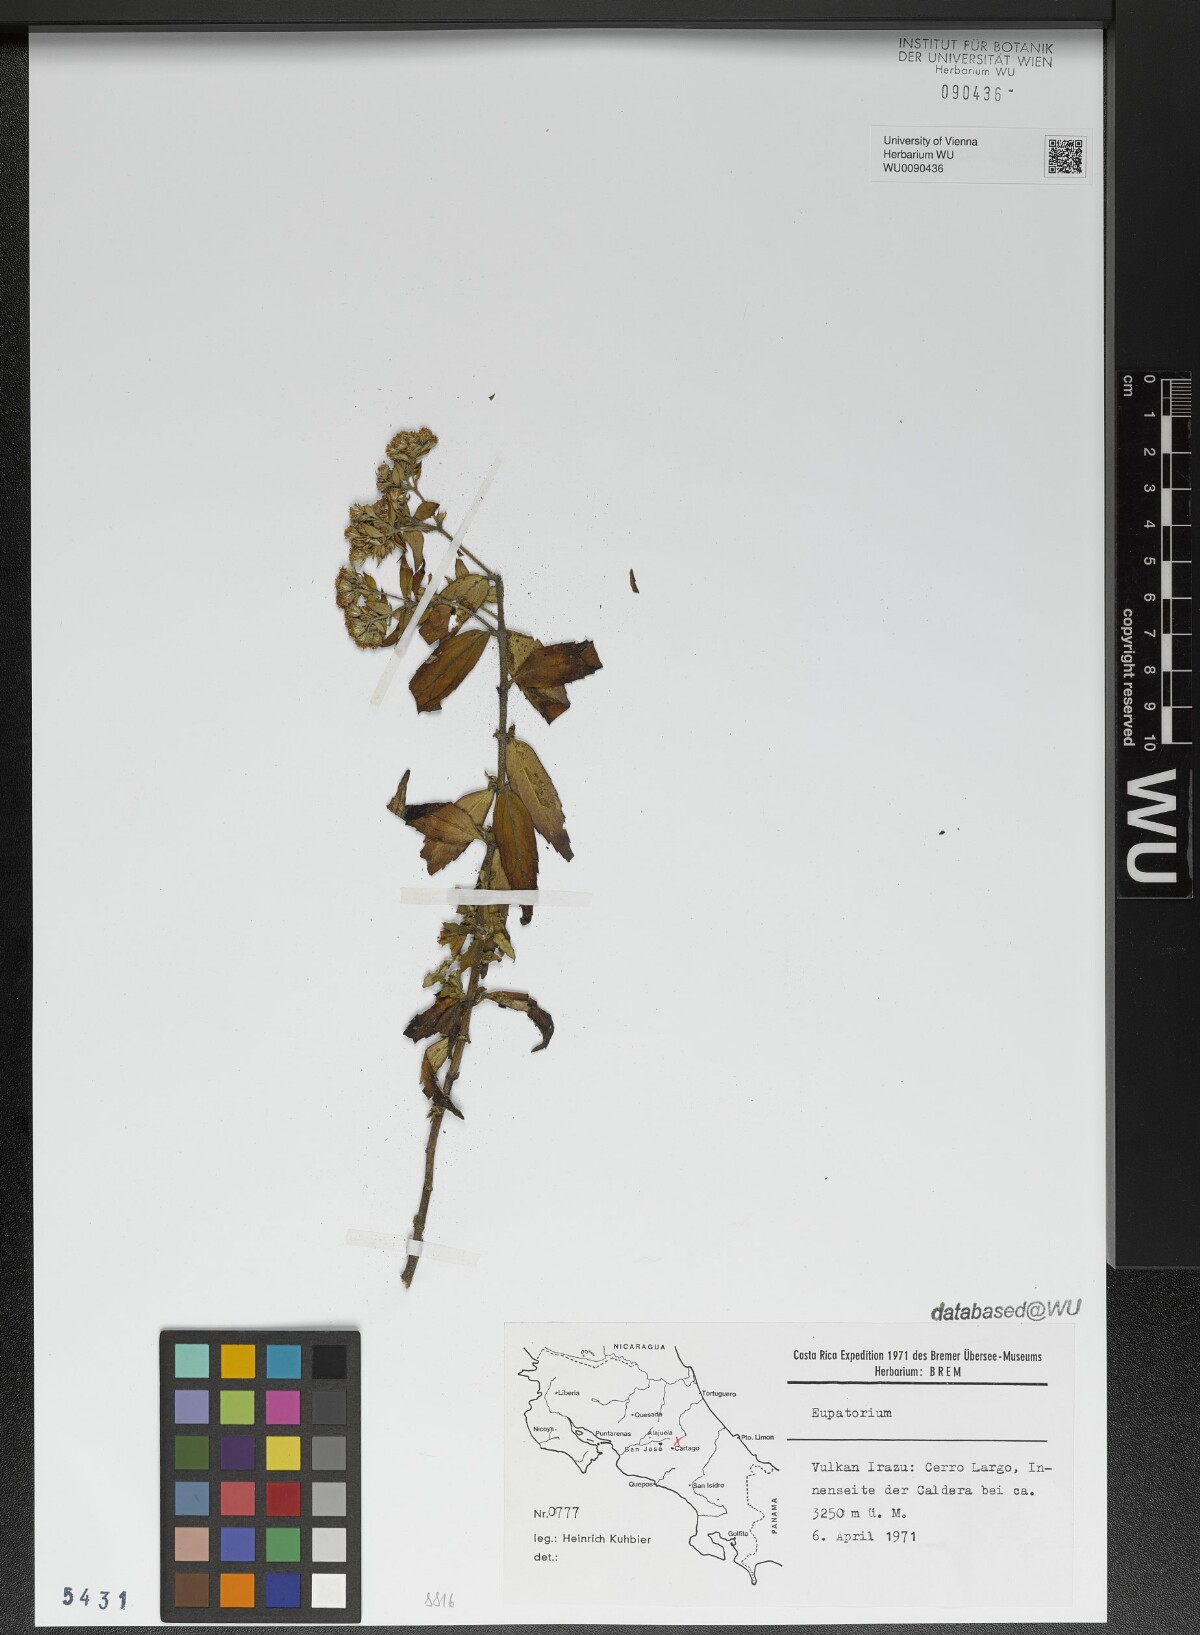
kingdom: Plantae
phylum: Tracheophyta
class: Magnoliopsida
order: Asterales
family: Asteraceae
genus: Eupatorium
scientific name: Eupatorium
